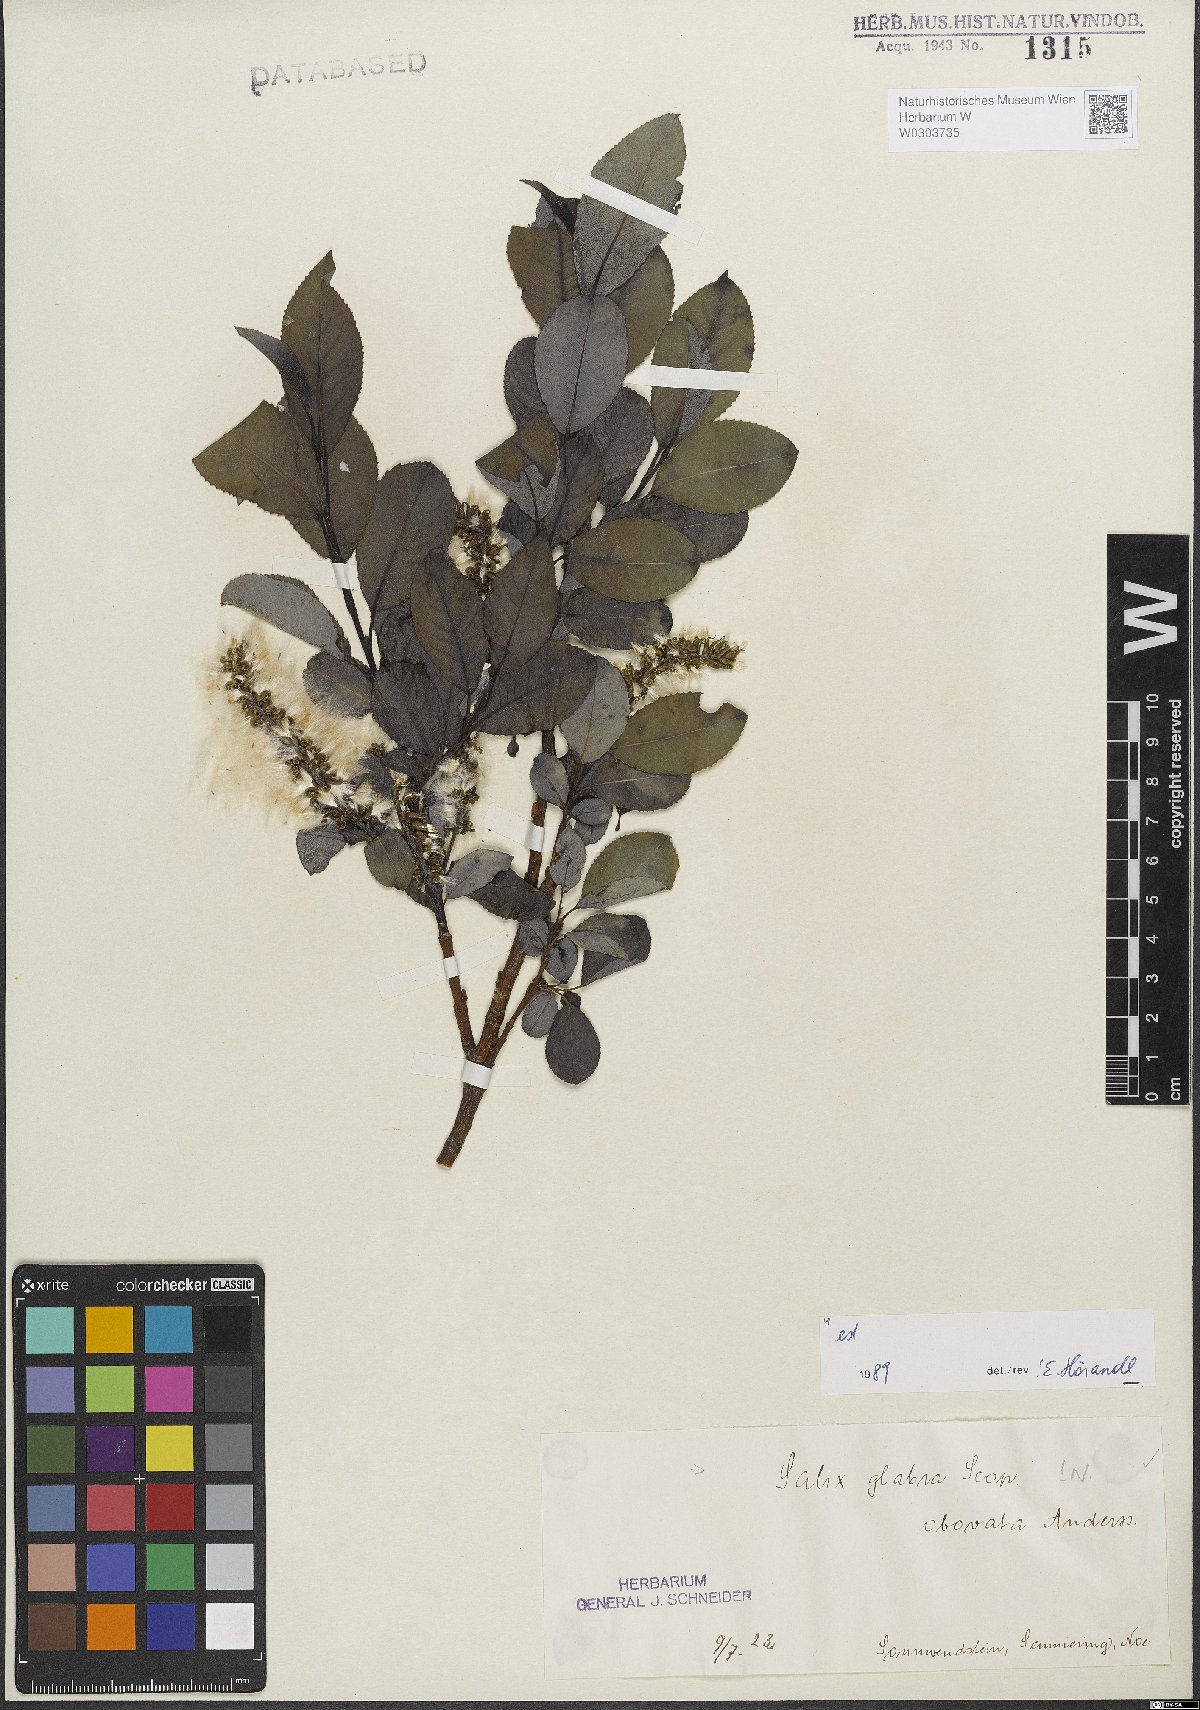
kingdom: Plantae
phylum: Tracheophyta
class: Magnoliopsida
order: Malpighiales
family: Salicaceae
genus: Salix
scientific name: Salix glabra
